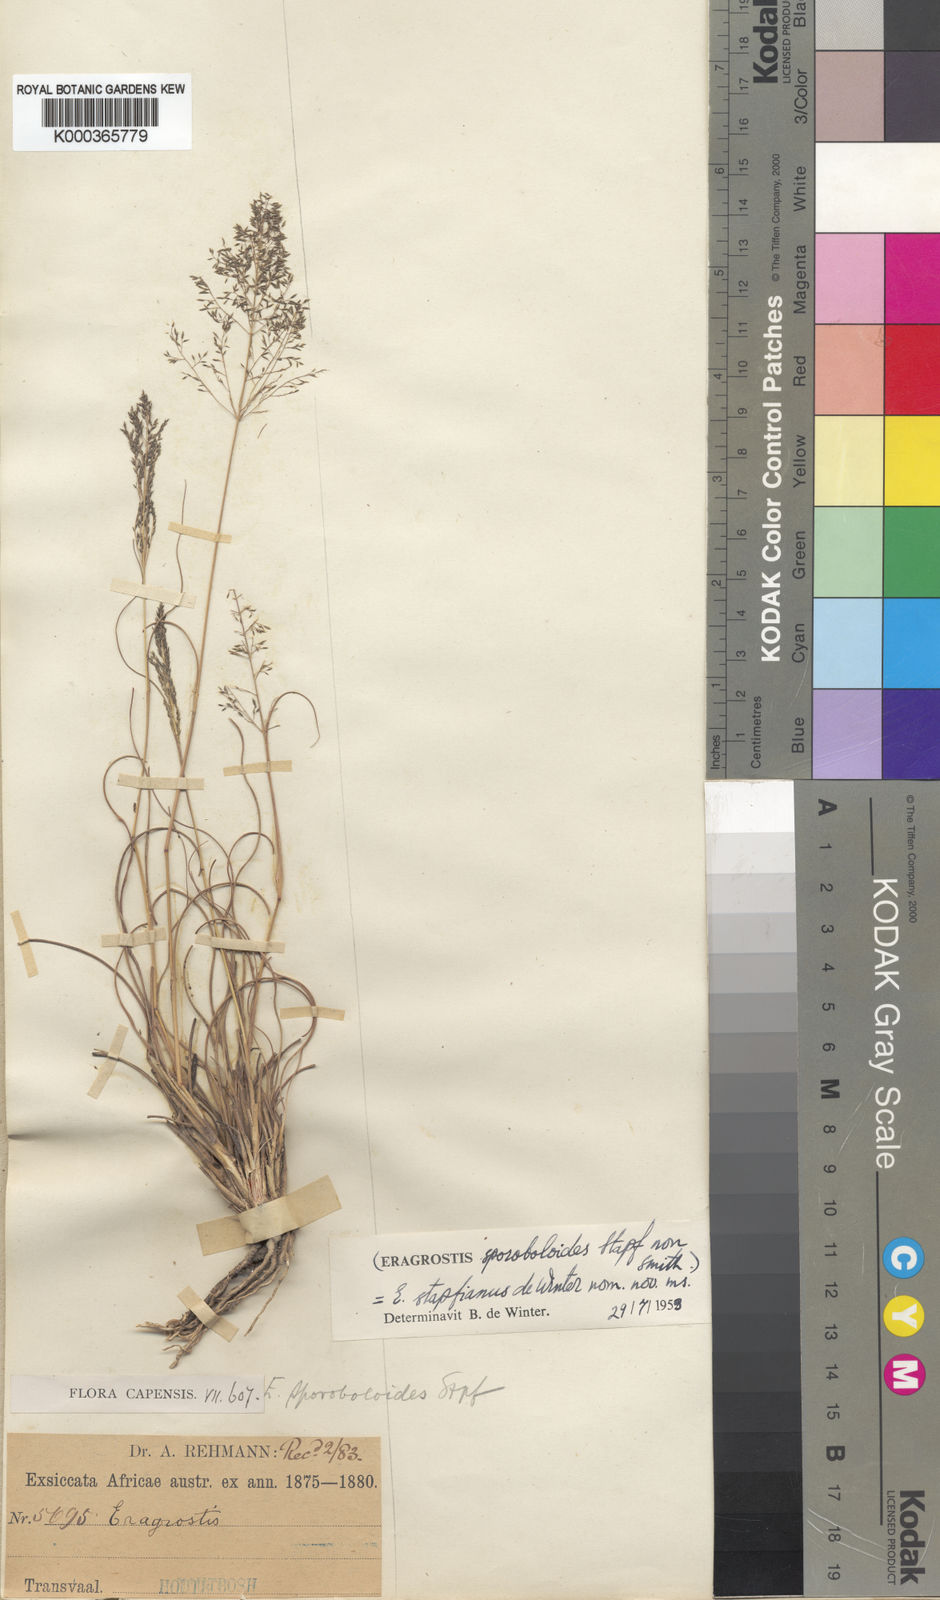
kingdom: Plantae
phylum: Tracheophyta
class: Liliopsida
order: Poales
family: Poaceae
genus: Eragrostis
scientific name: Eragrostis stapfii
